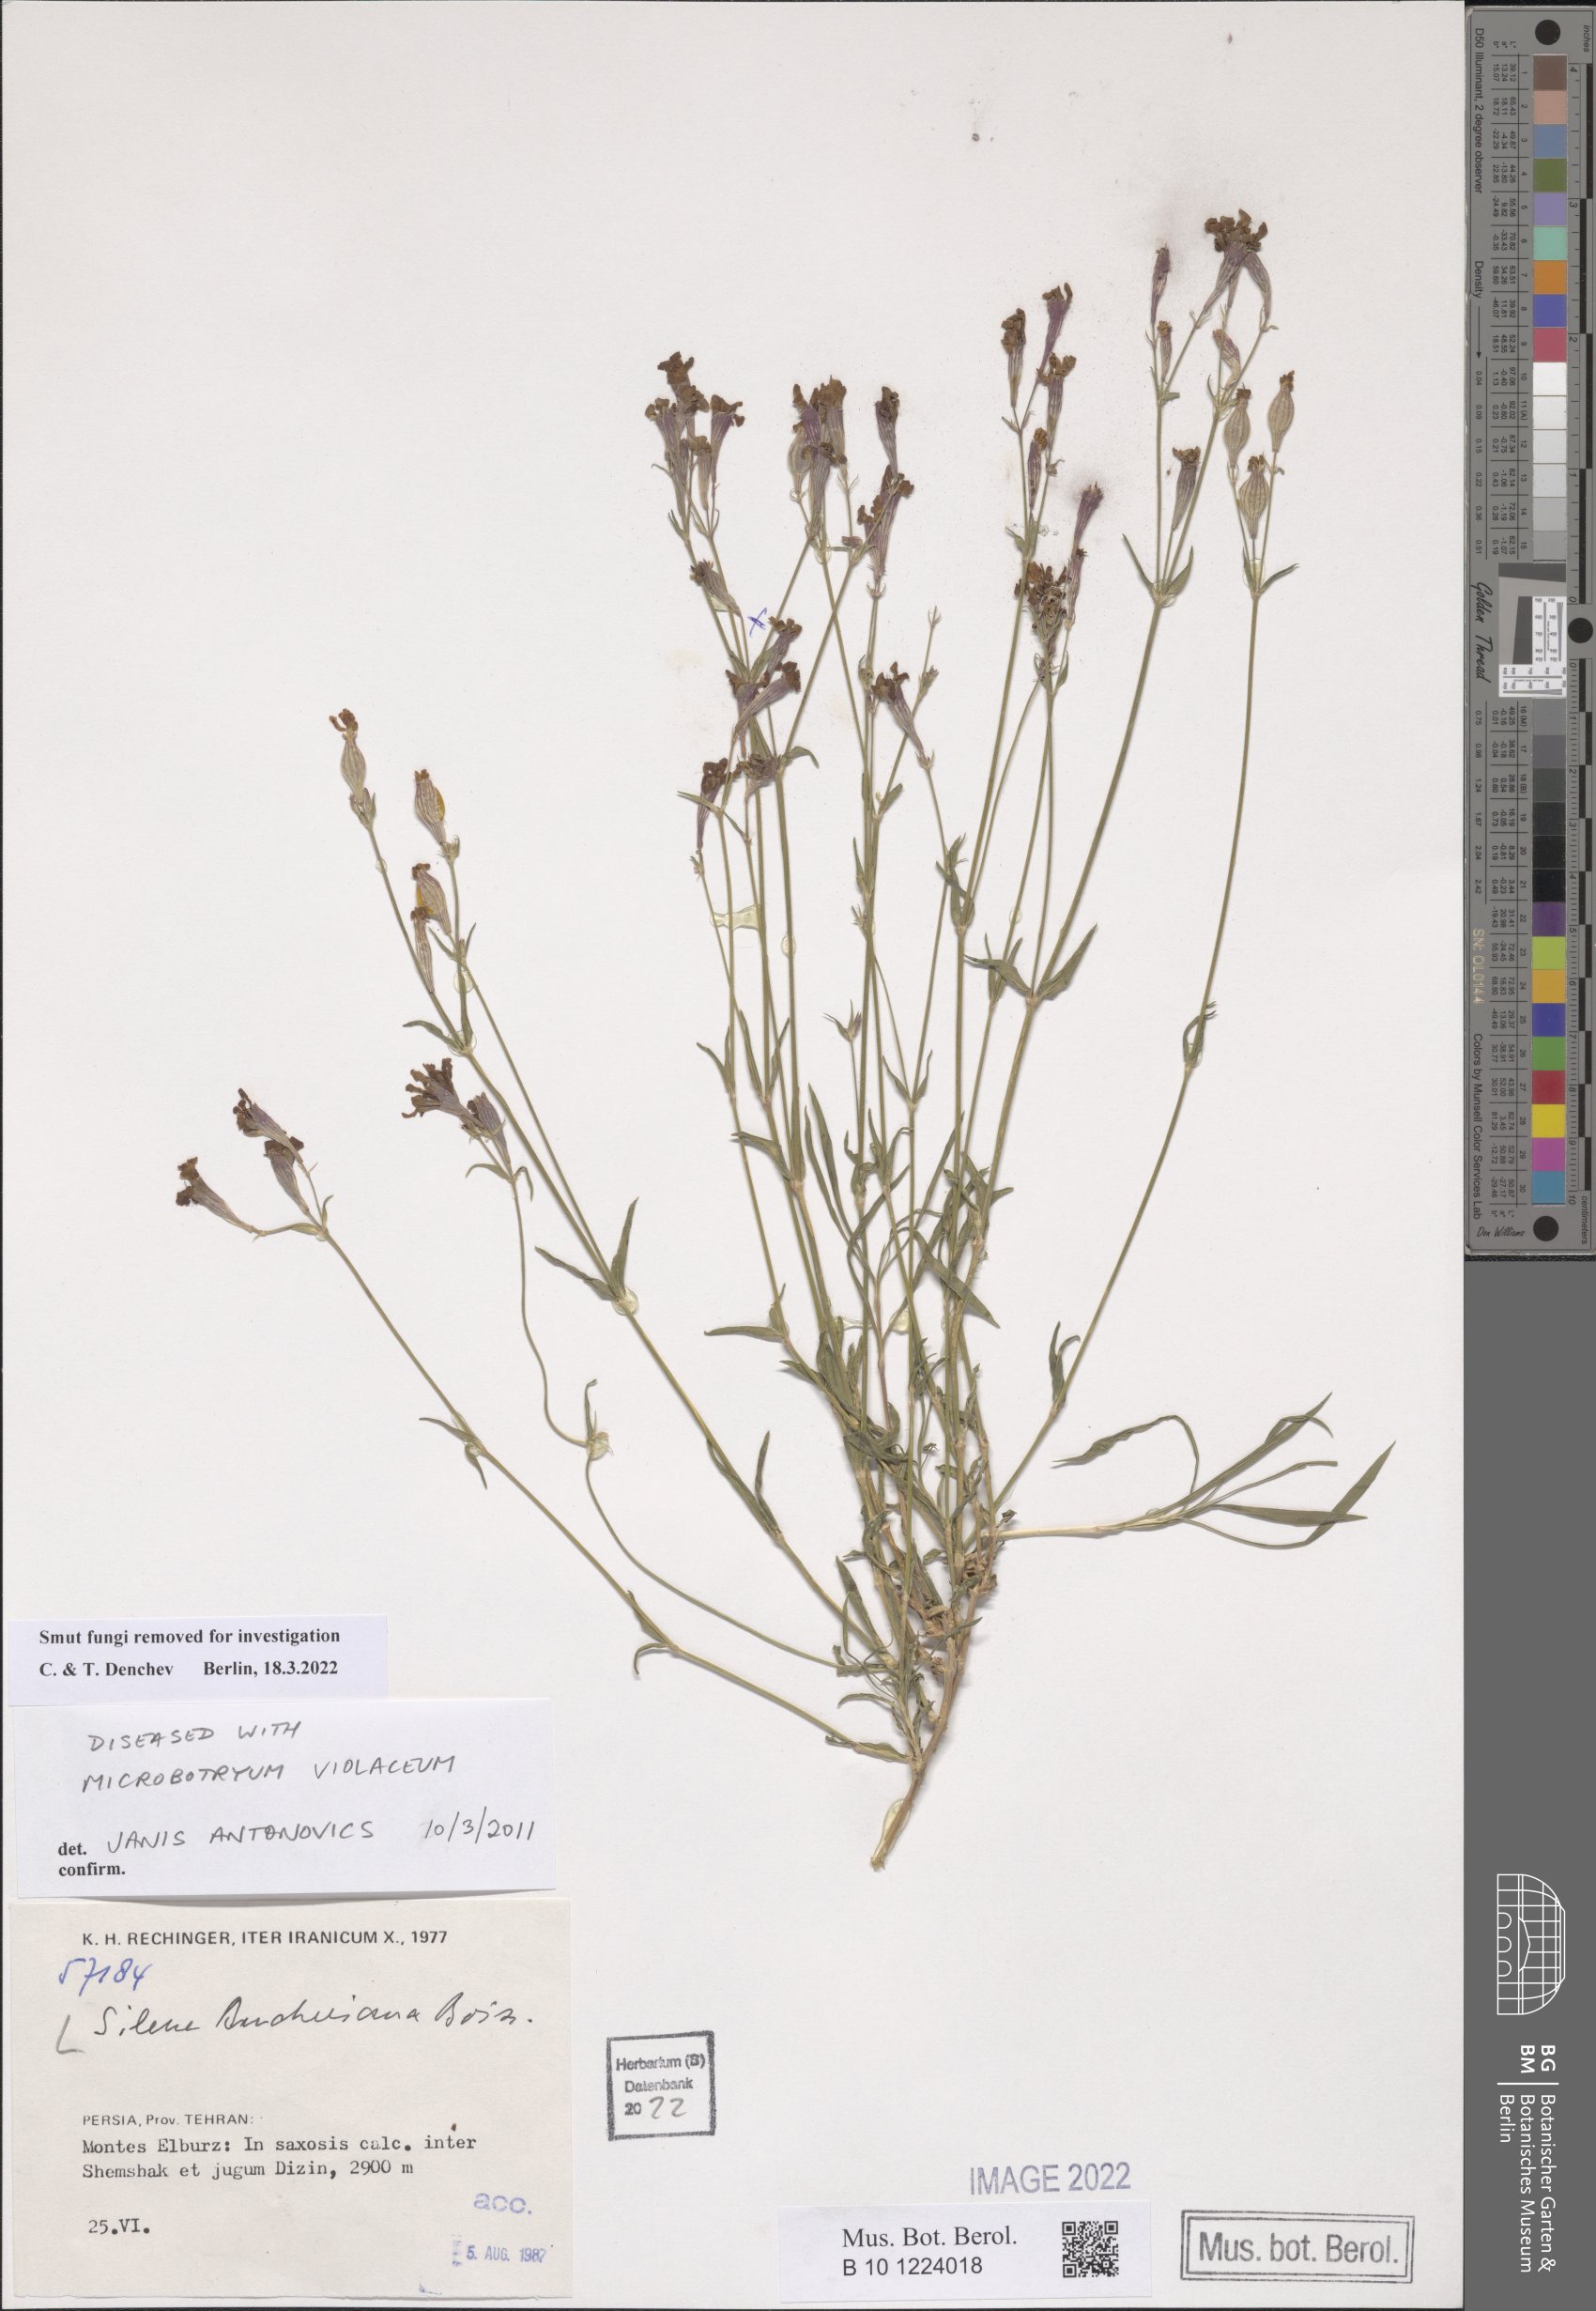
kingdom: Plantae
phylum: Tracheophyta
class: Magnoliopsida
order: Caryophyllales
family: Caryophyllaceae
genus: Silene
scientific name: Silene aucheriana
